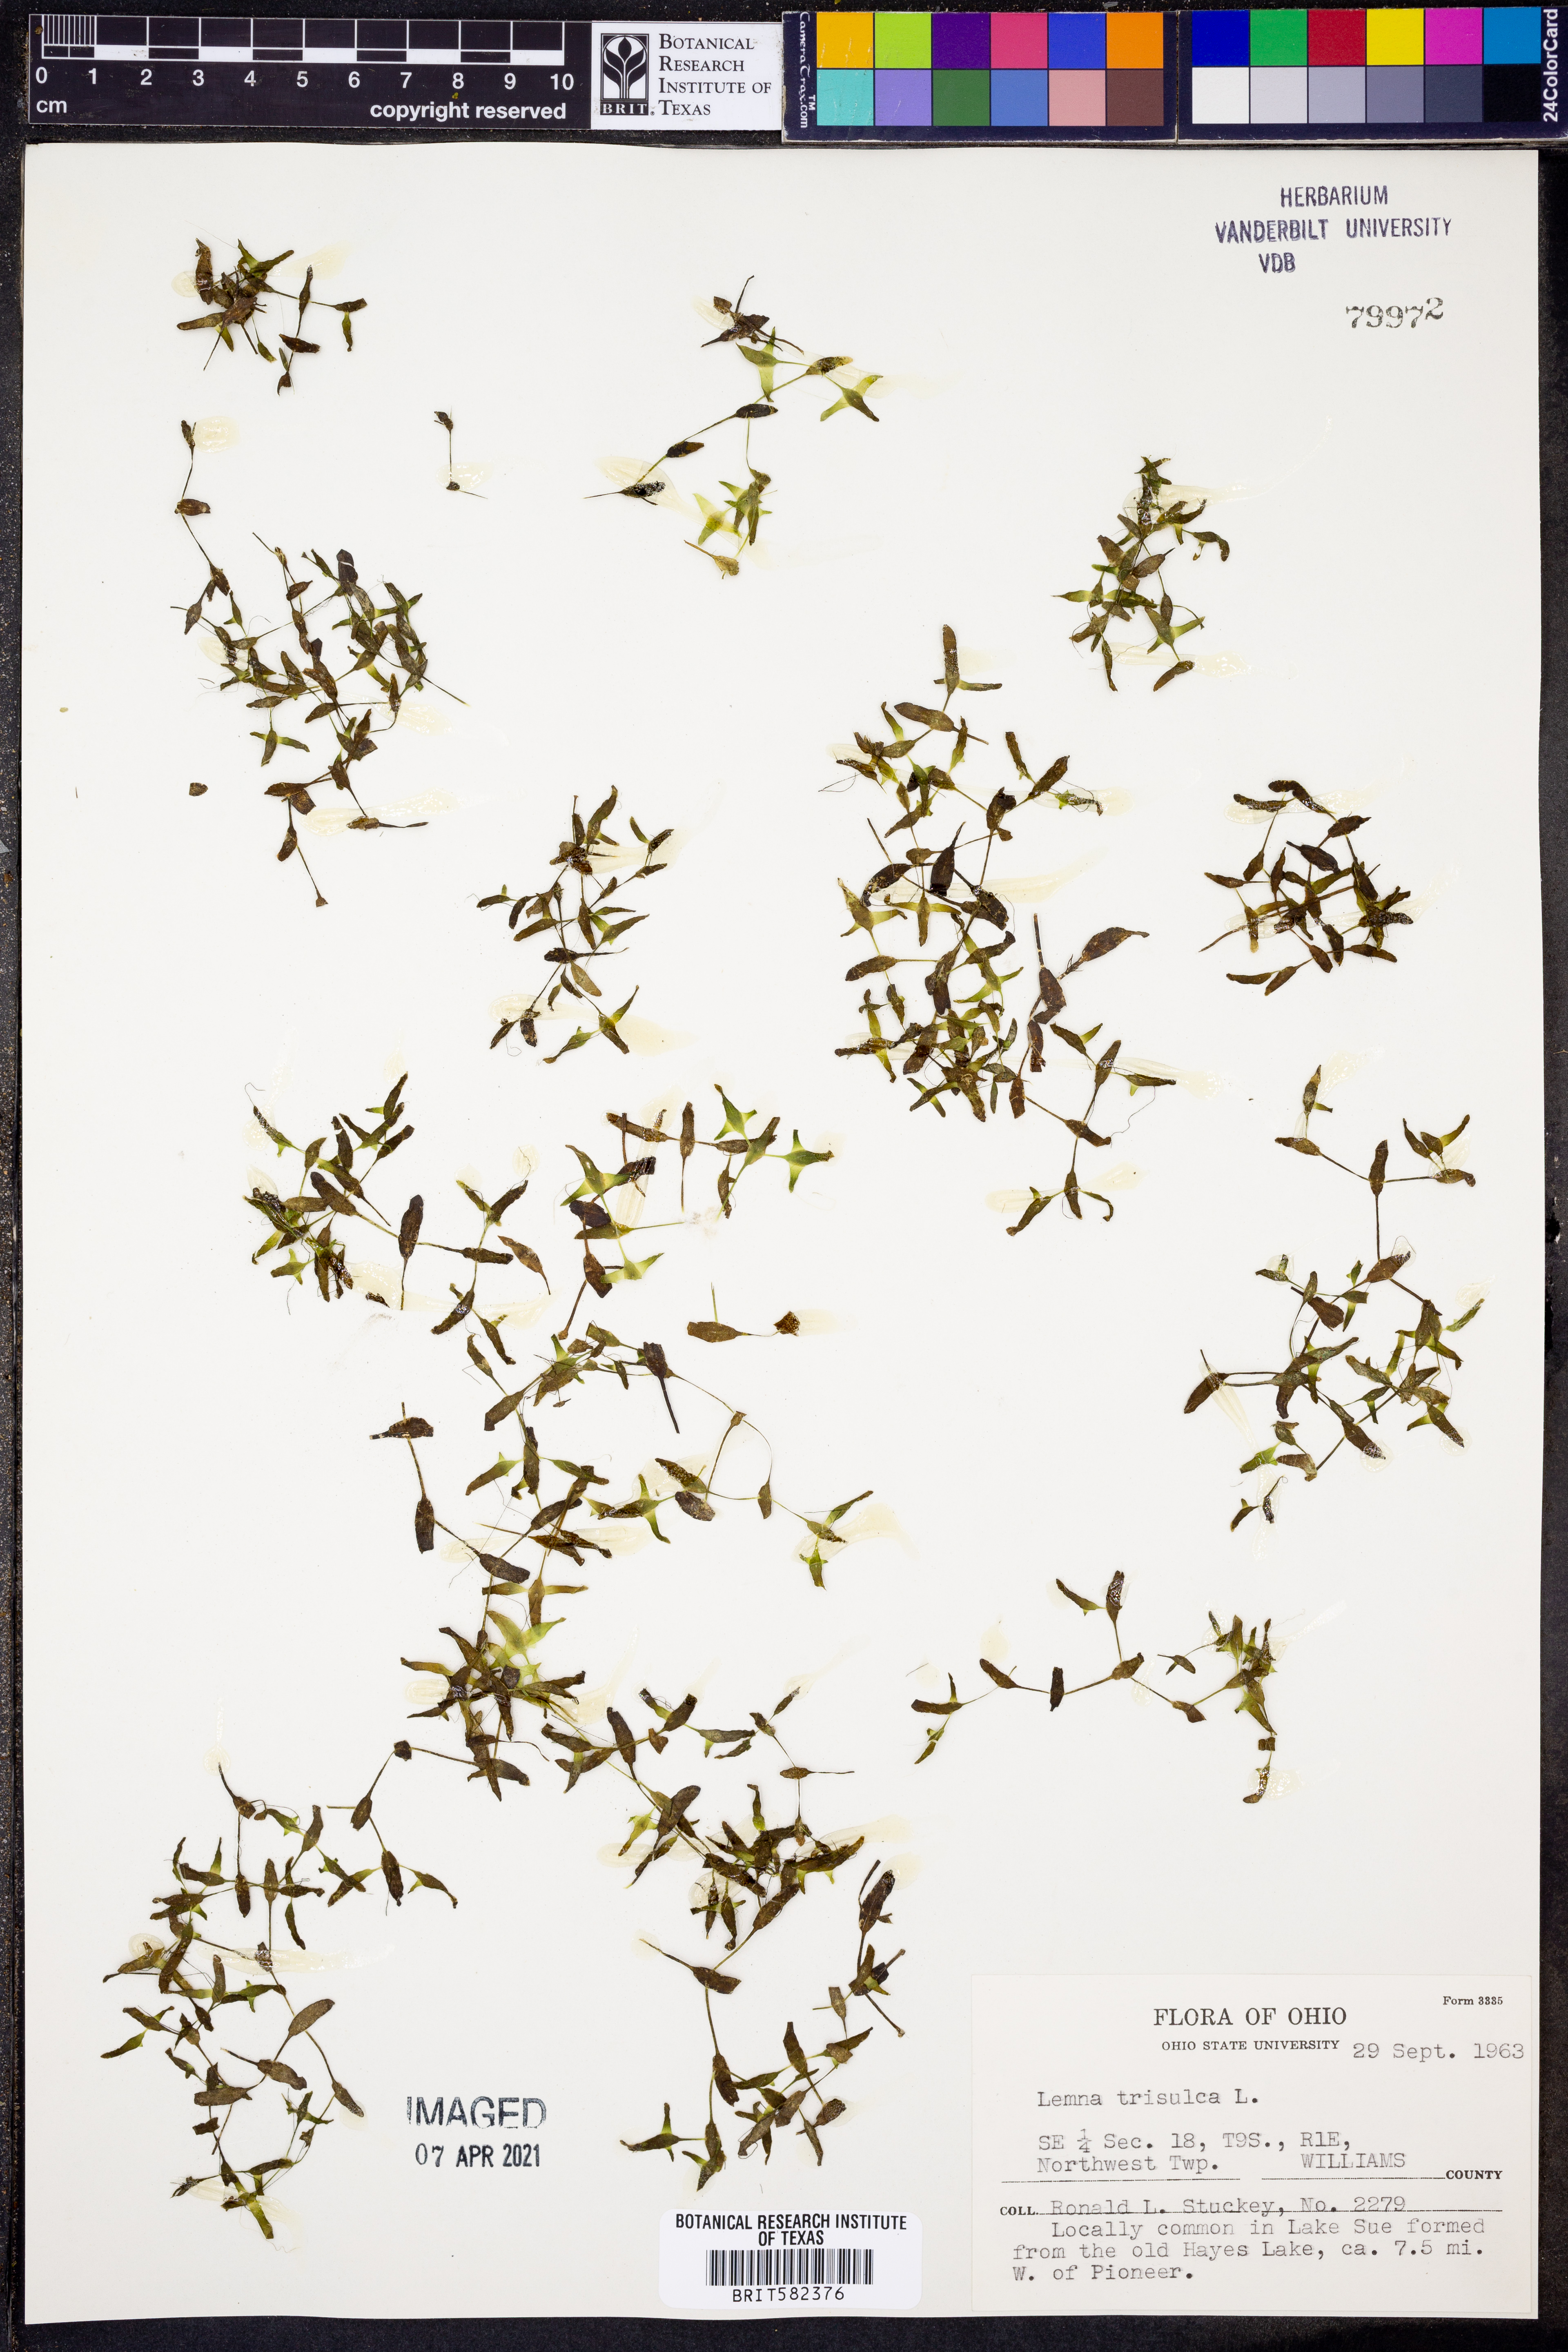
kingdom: Plantae
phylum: Tracheophyta
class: Liliopsida
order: Alismatales
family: Araceae
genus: Lemna
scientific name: Lemna trisulca
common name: Ivy-leaved duckweed
